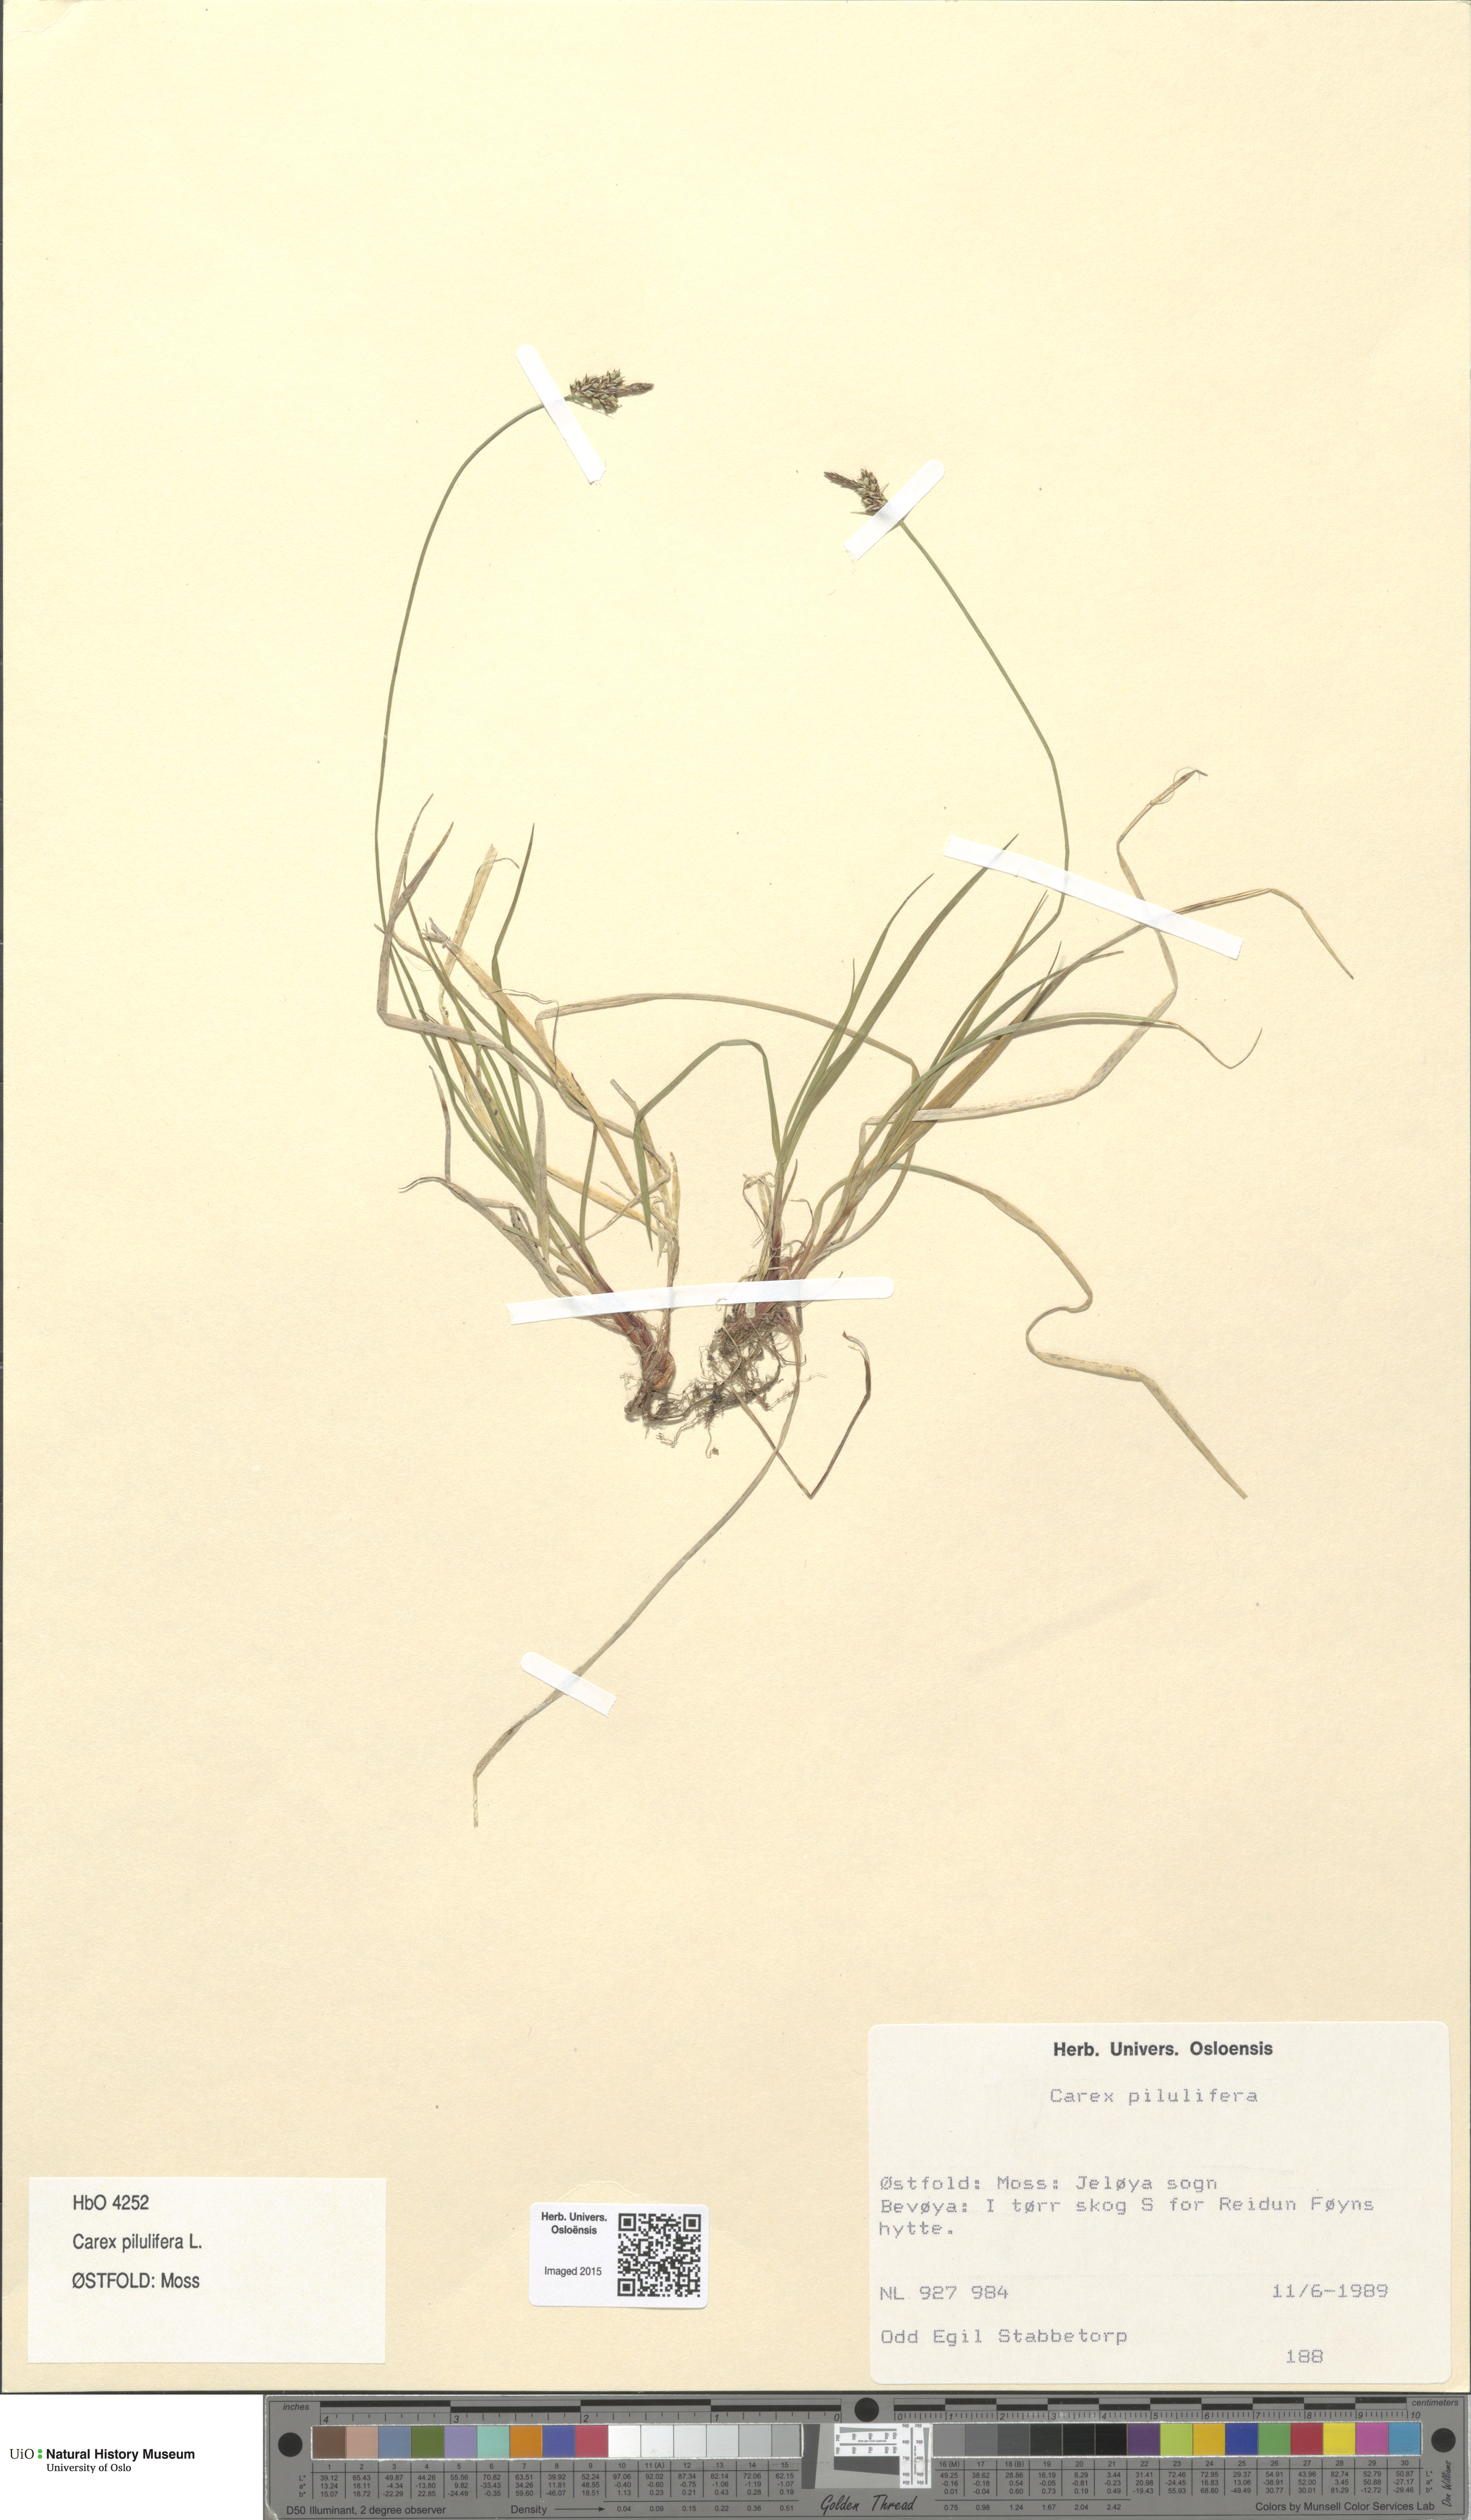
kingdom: Plantae
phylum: Tracheophyta
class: Liliopsida
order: Poales
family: Cyperaceae
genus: Carex
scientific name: Carex pilulifera
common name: Pill sedge
